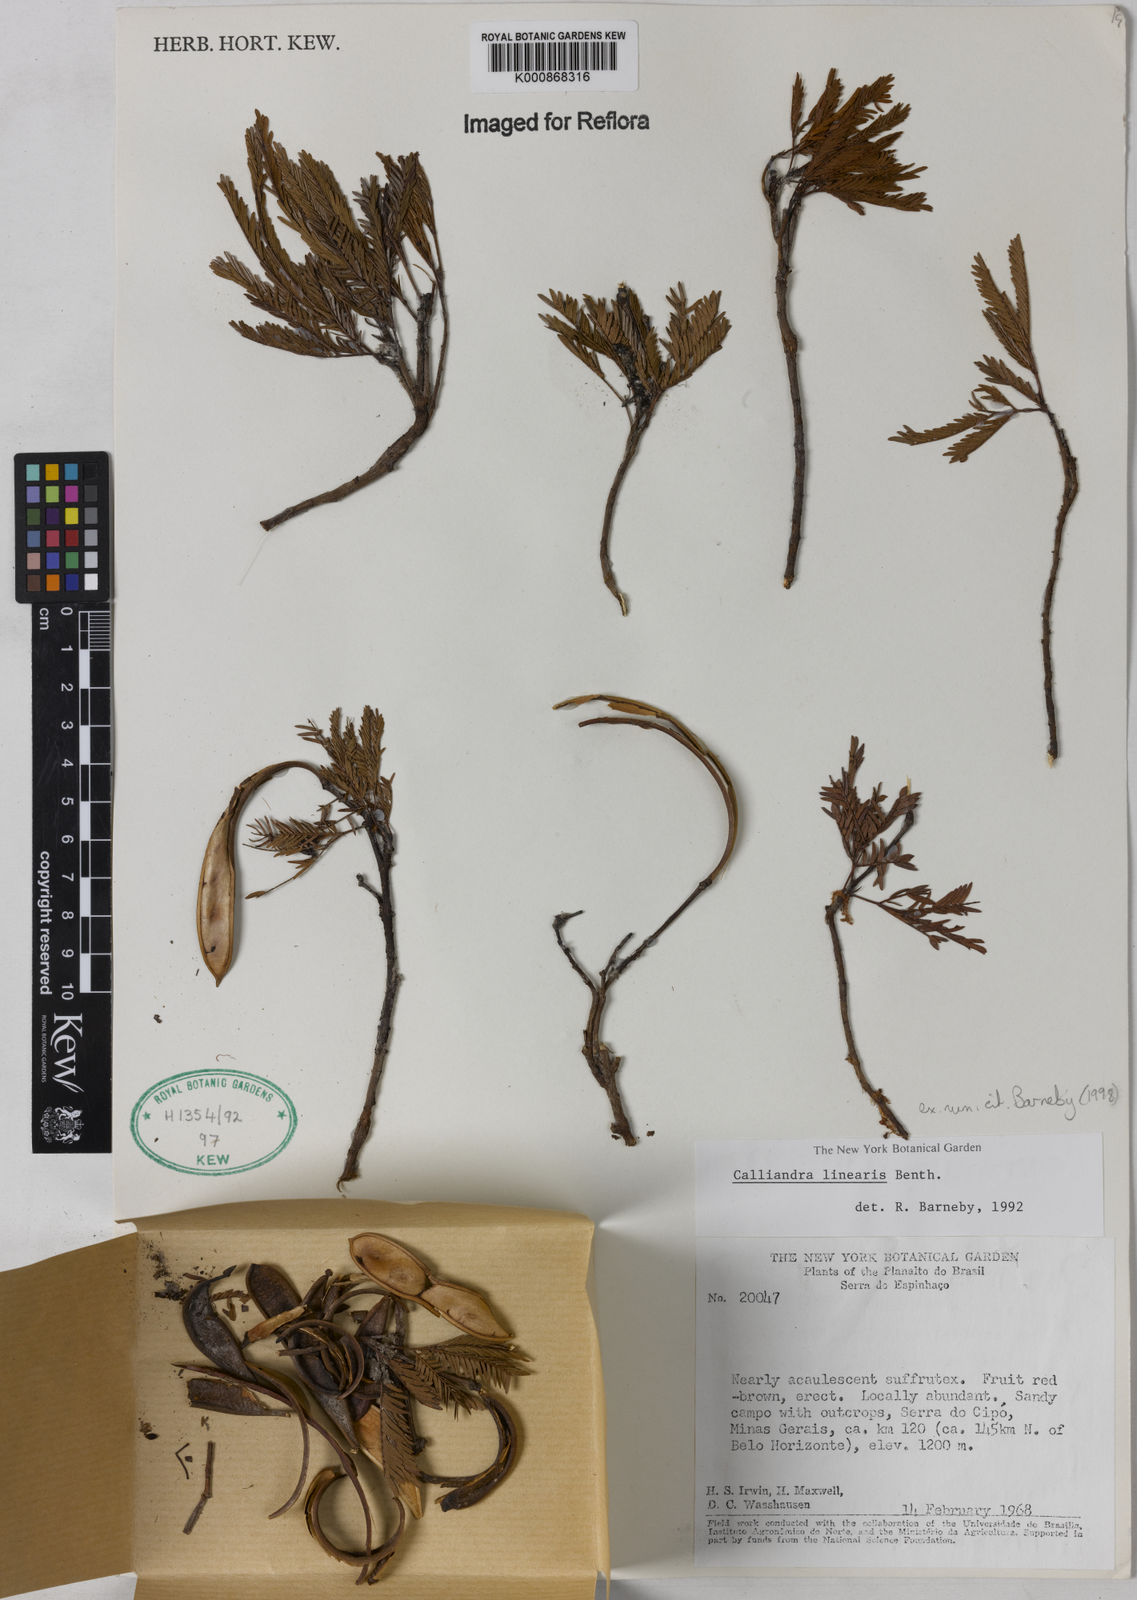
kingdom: Plantae
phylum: Tracheophyta
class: Magnoliopsida
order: Fabales
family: Fabaceae
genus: Calliandra
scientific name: Calliandra linearis
